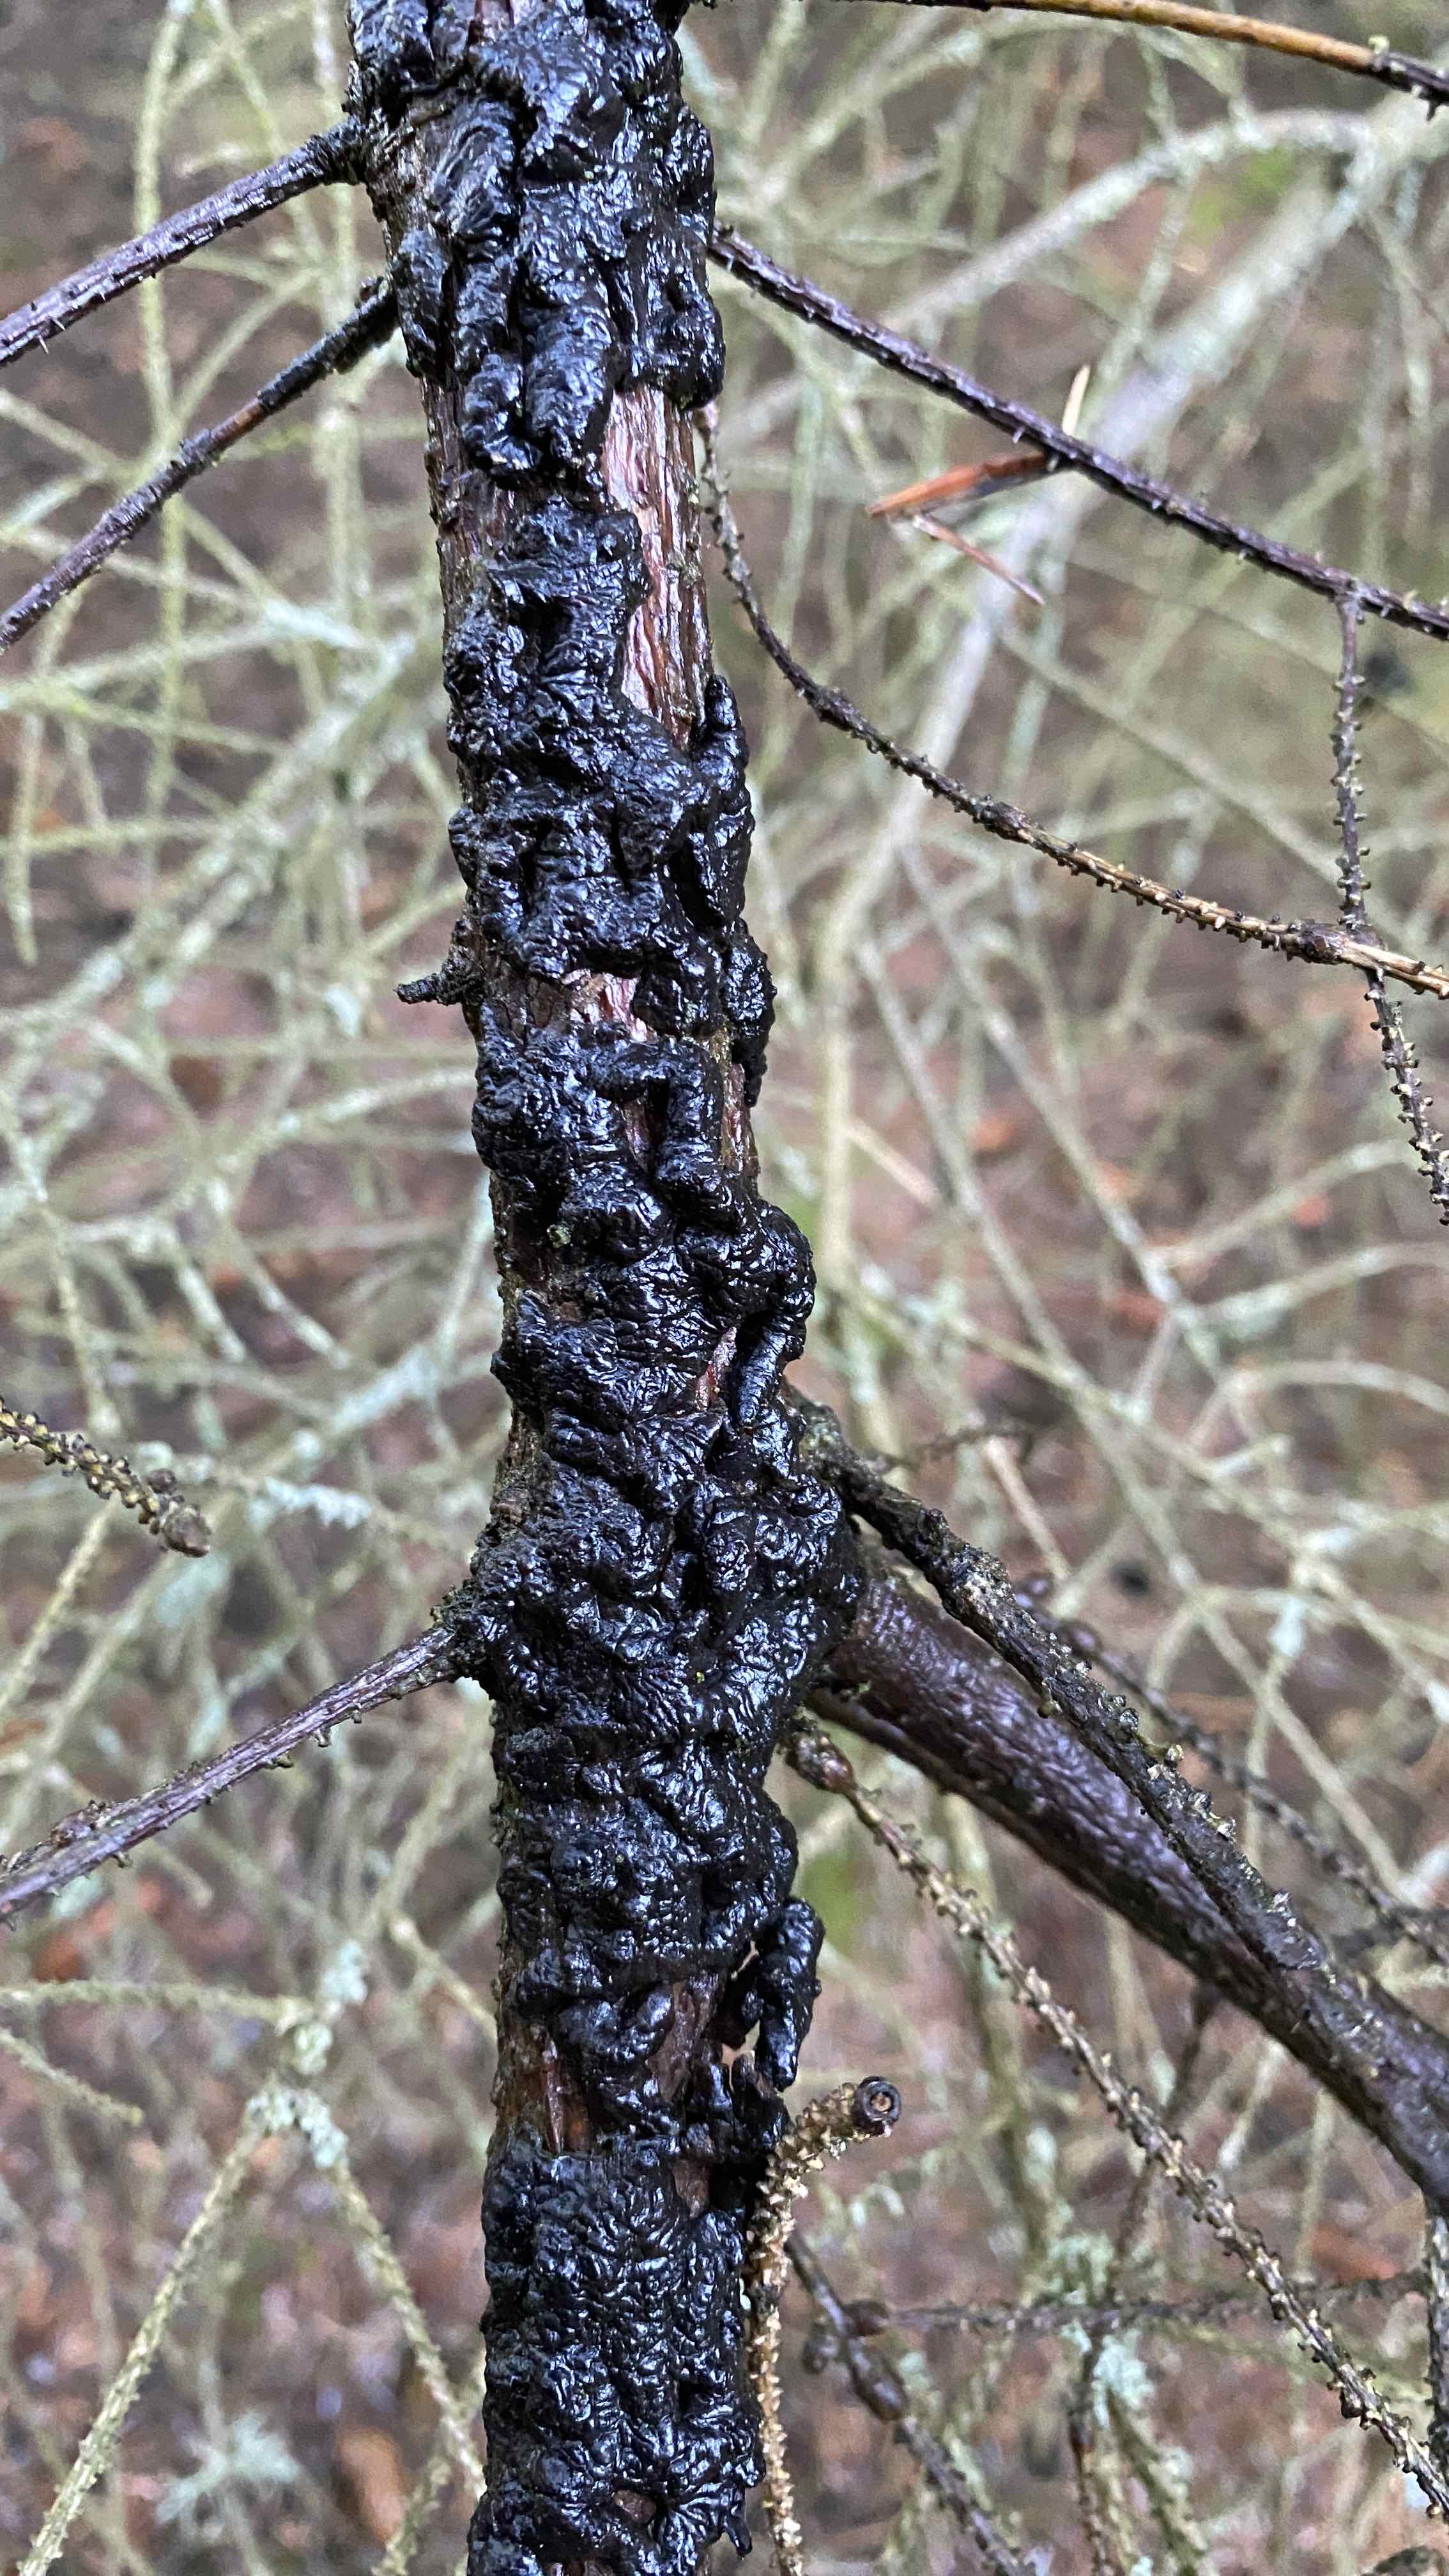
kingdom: Fungi
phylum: Basidiomycota
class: Agaricomycetes
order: Auriculariales
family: Auriculariaceae
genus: Exidia
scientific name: Exidia pithya
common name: gran-bævretop
